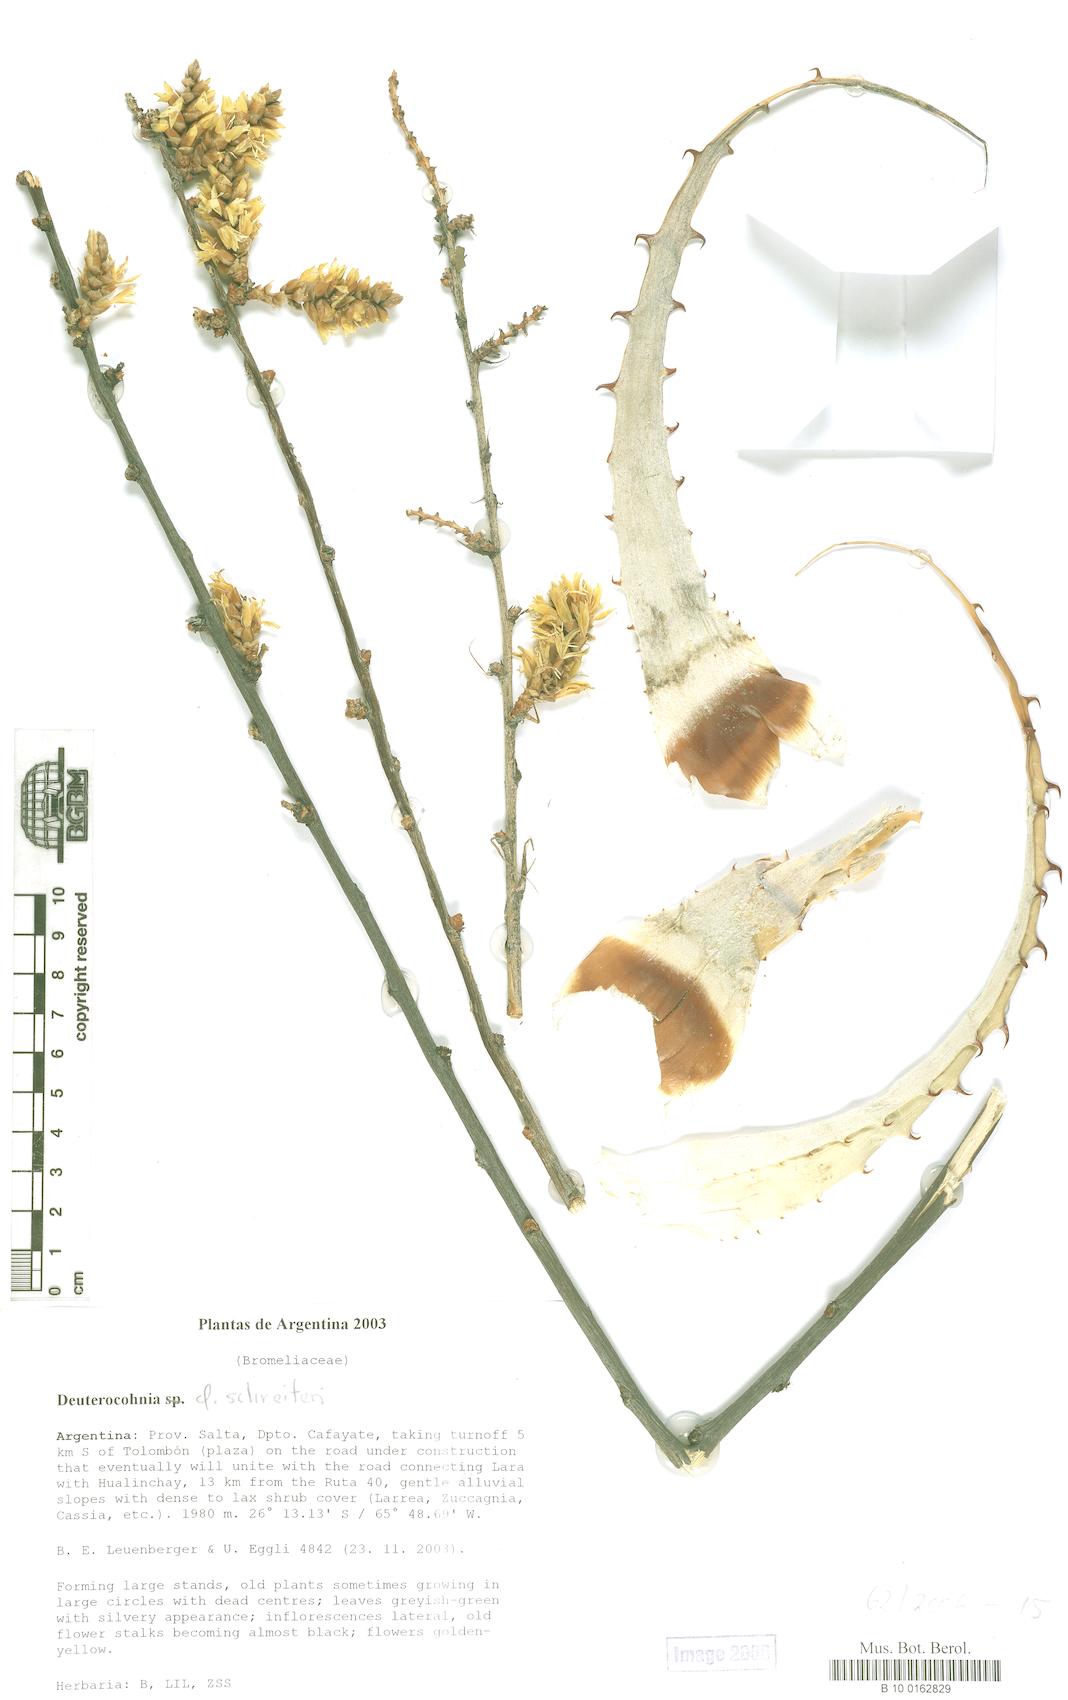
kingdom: Plantae
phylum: Tracheophyta
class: Liliopsida
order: Poales
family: Bromeliaceae
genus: Deuterocohnia
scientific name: Deuterocohnia schreiteri
